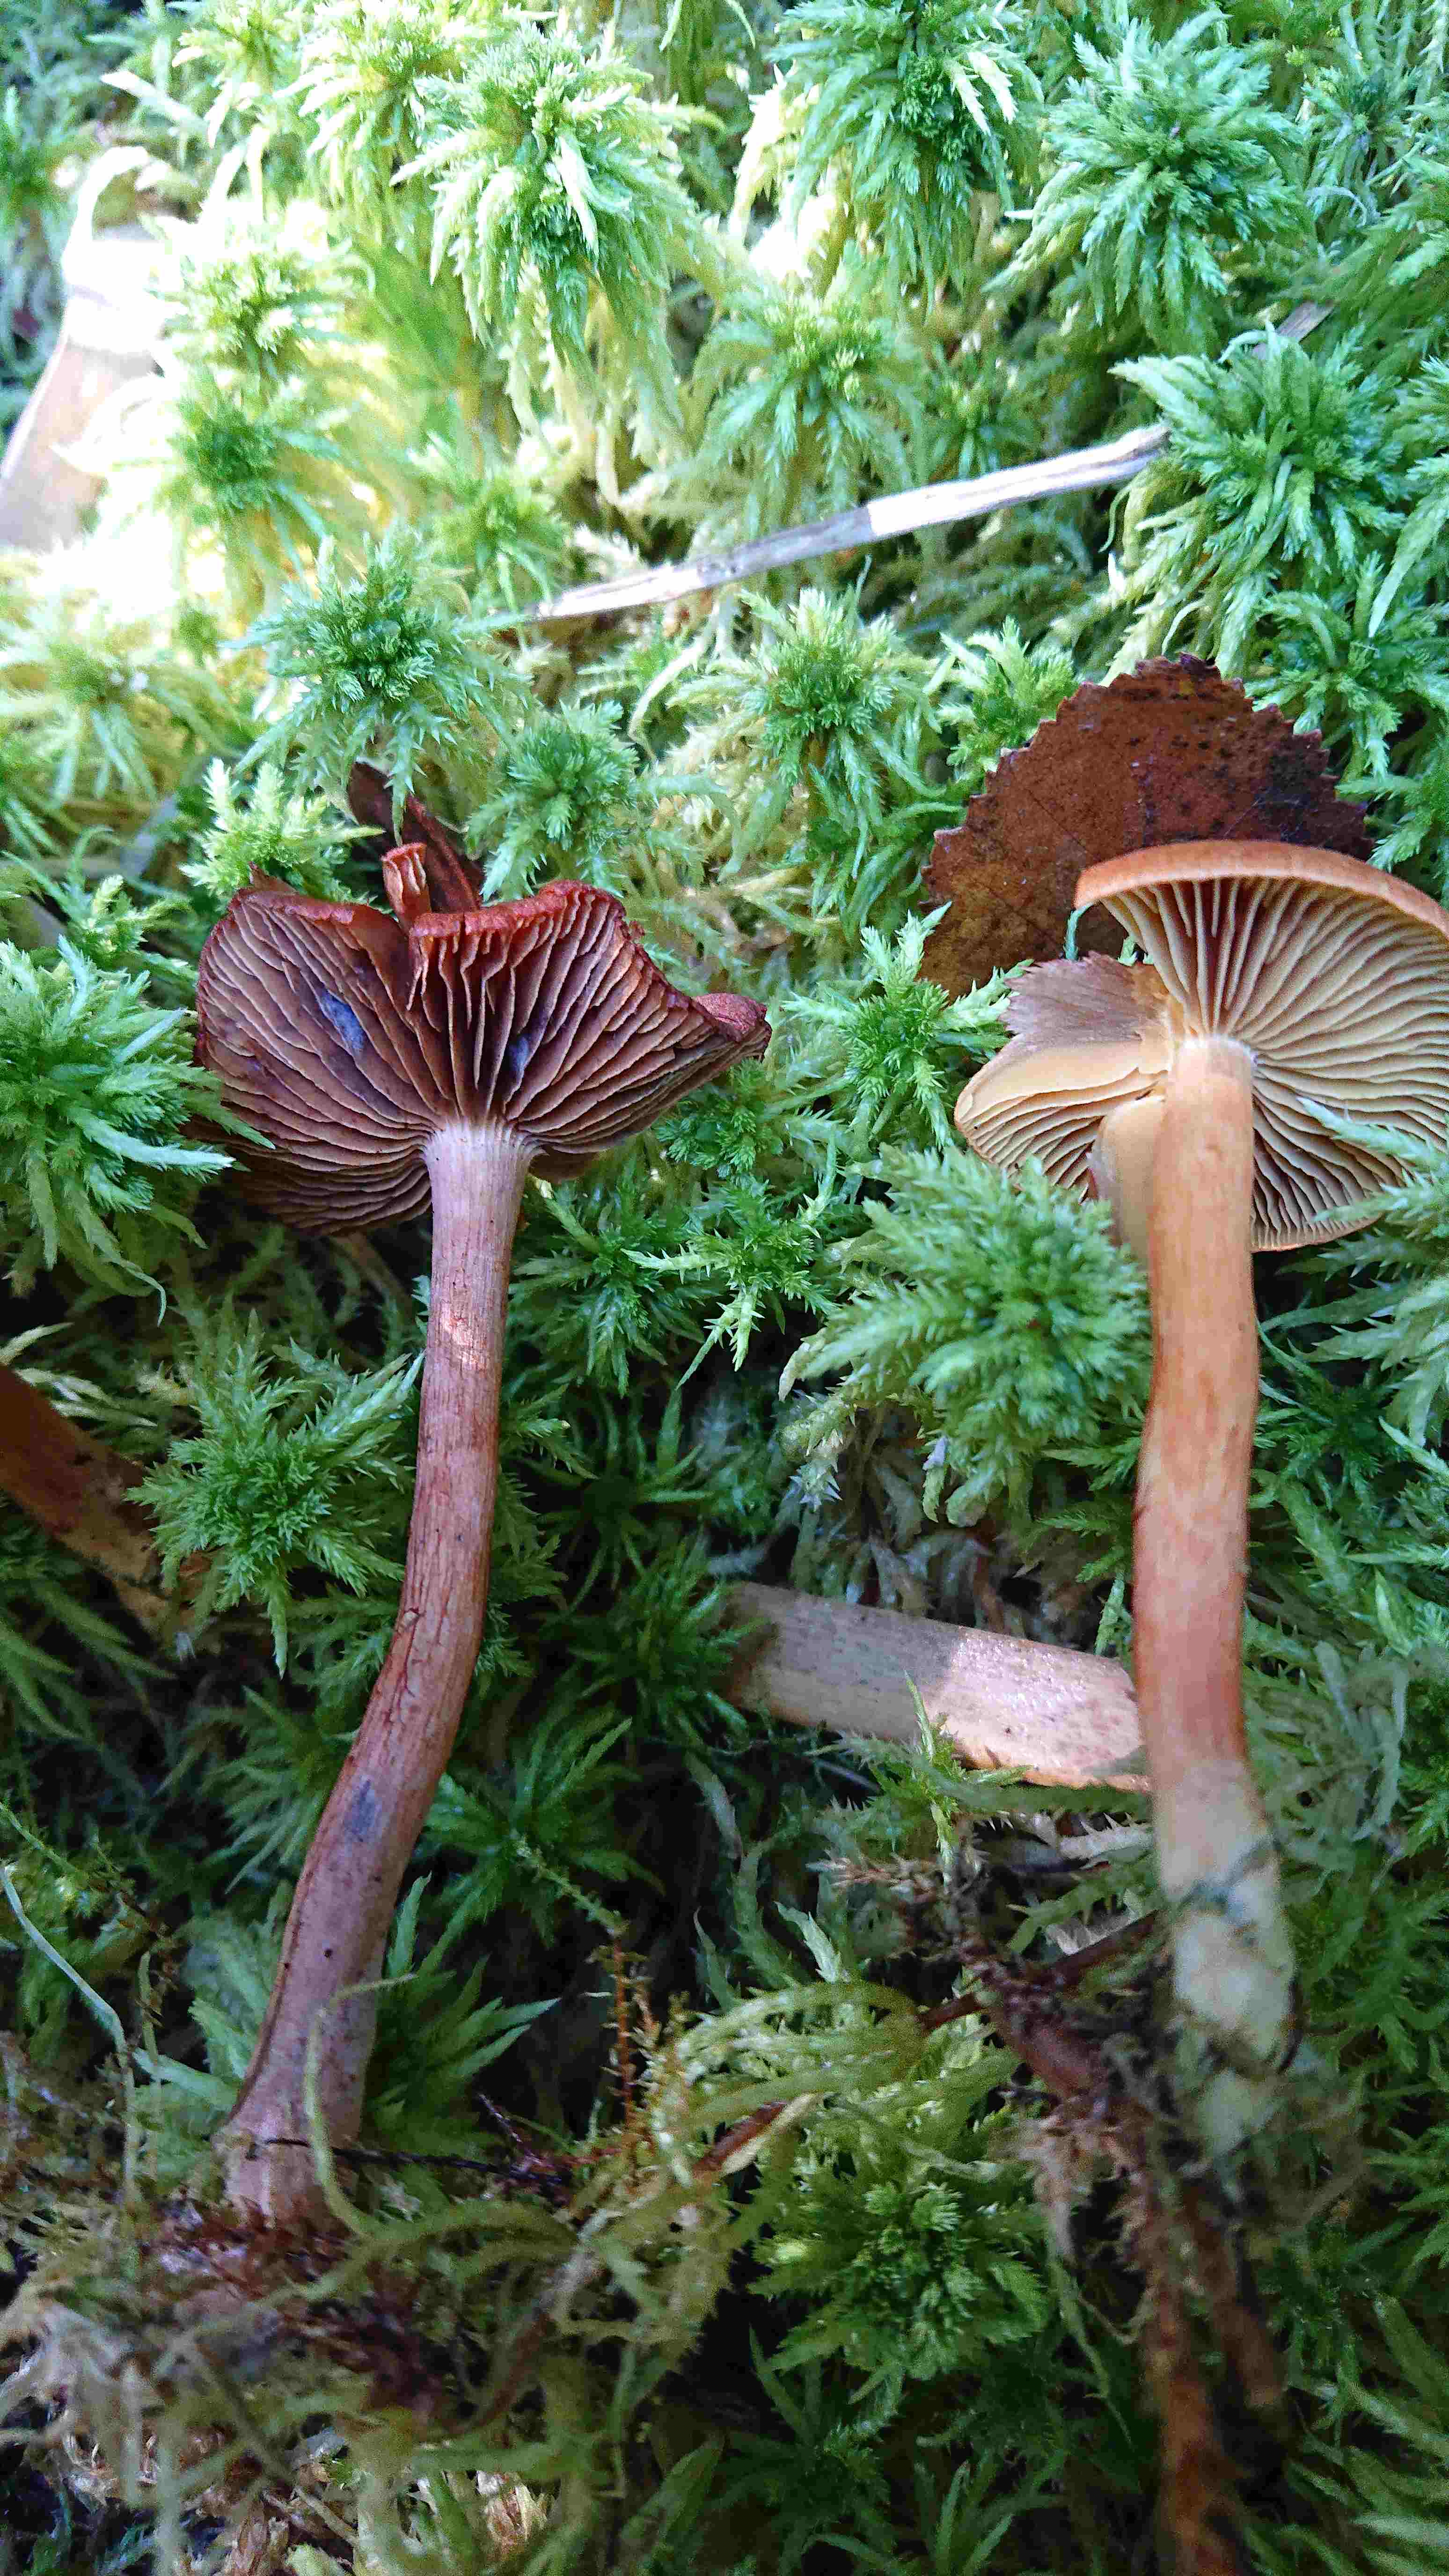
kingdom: Fungi
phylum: Basidiomycota
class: Agaricomycetes
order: Agaricales
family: Cortinariaceae
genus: Cortinarius
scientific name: Cortinarius
